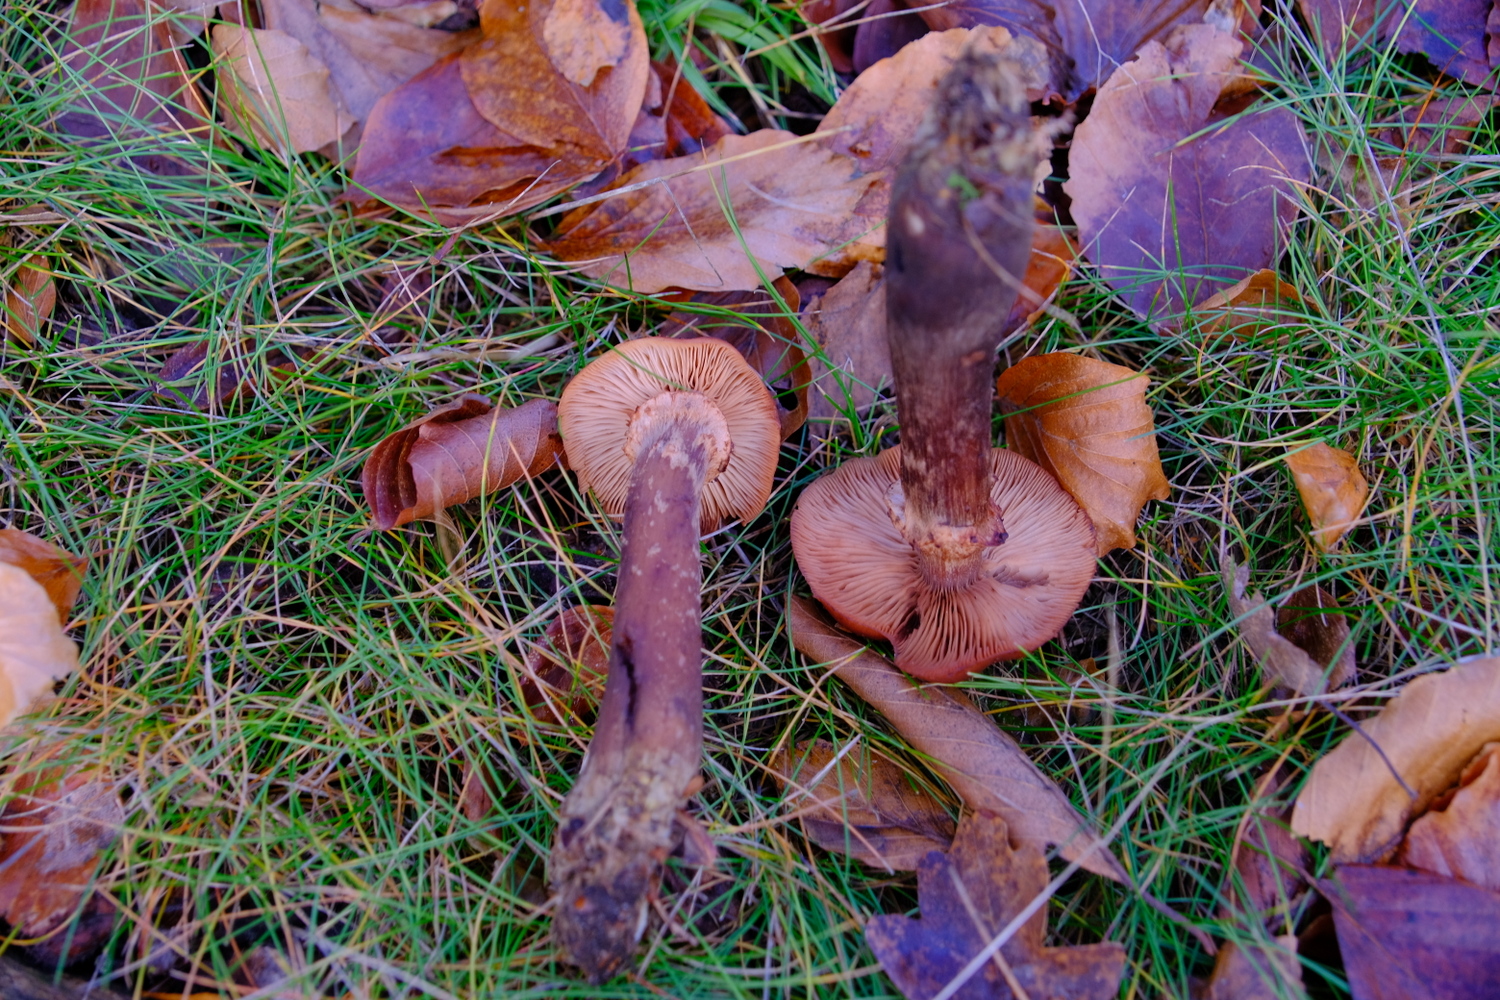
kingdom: Fungi
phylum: Basidiomycota
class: Agaricomycetes
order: Agaricales
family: Physalacriaceae
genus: Armillaria
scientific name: Armillaria ostoyae
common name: mørk honningsvamp
